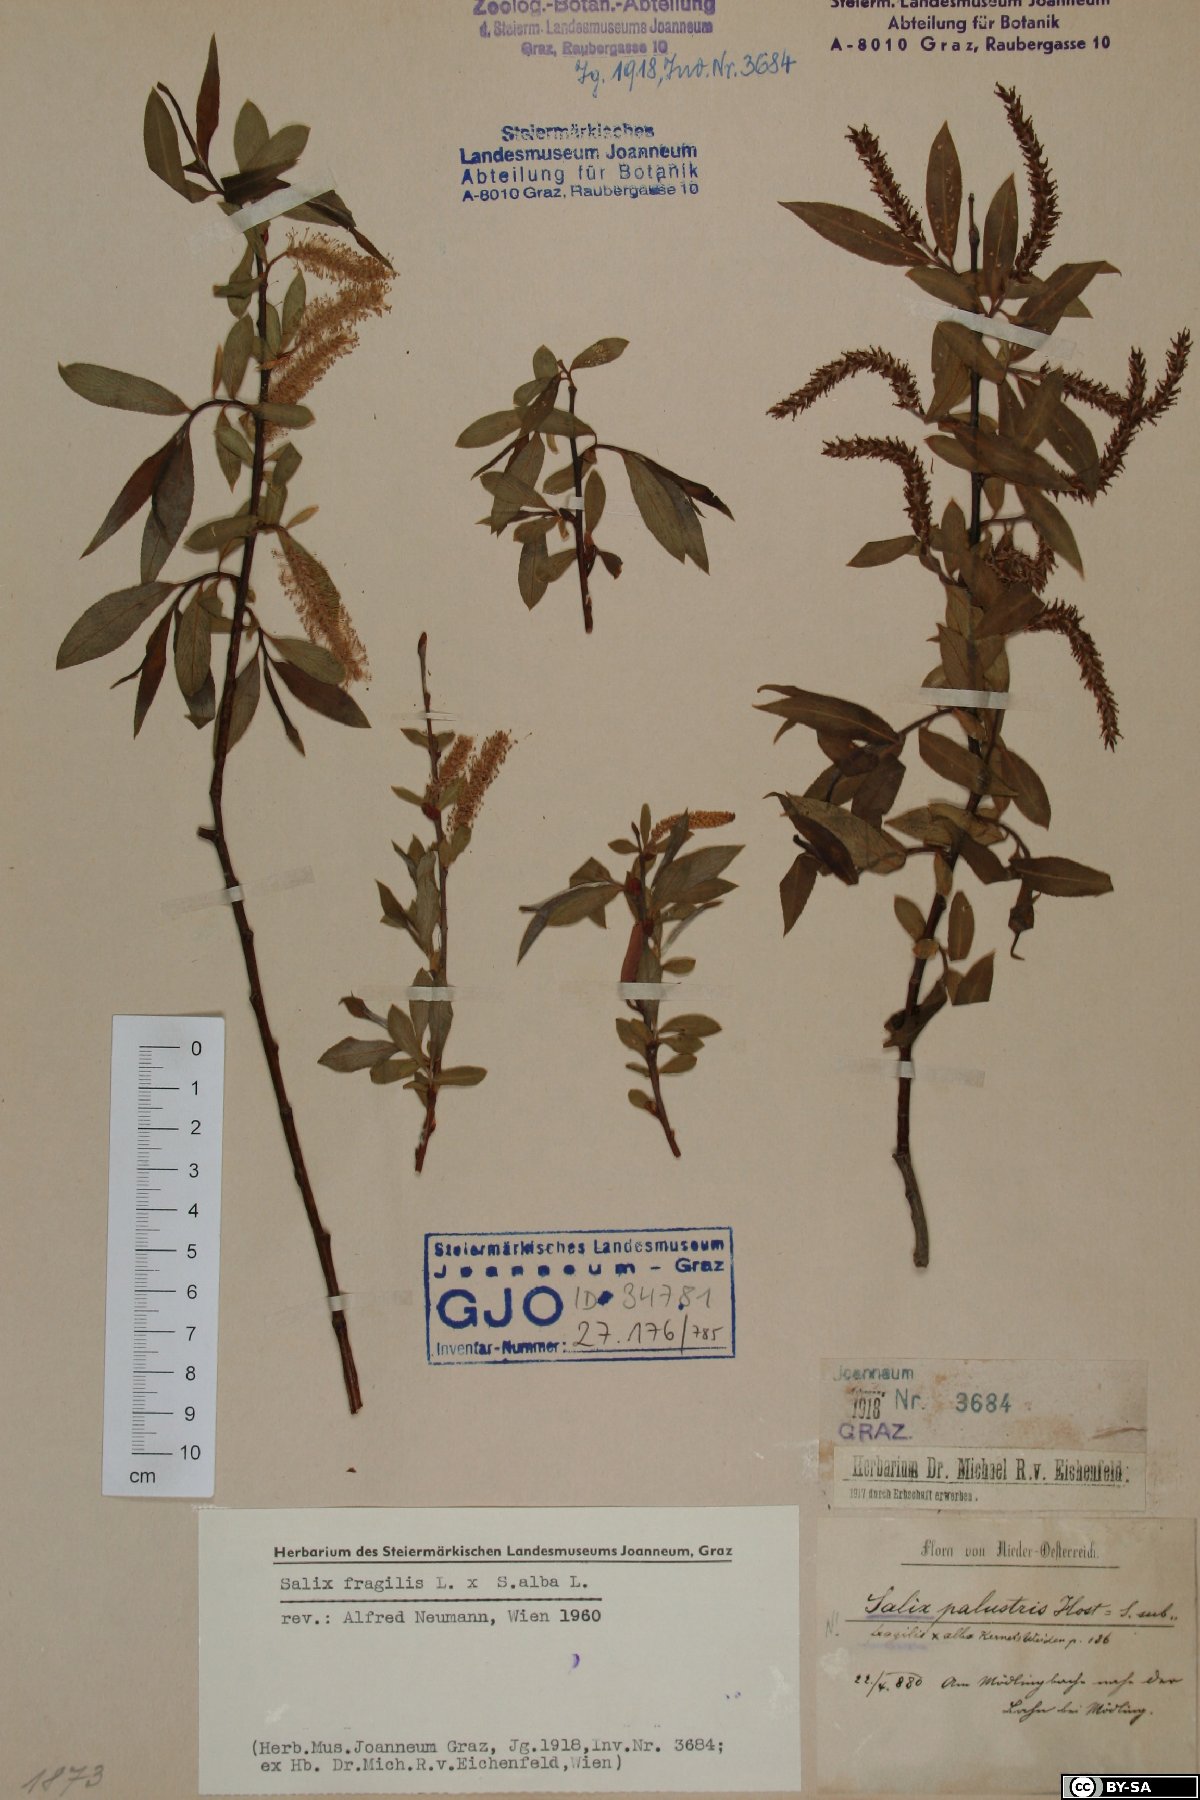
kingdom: Plantae
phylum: Tracheophyta
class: Magnoliopsida
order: Malpighiales
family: Salicaceae
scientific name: Salicaceae
